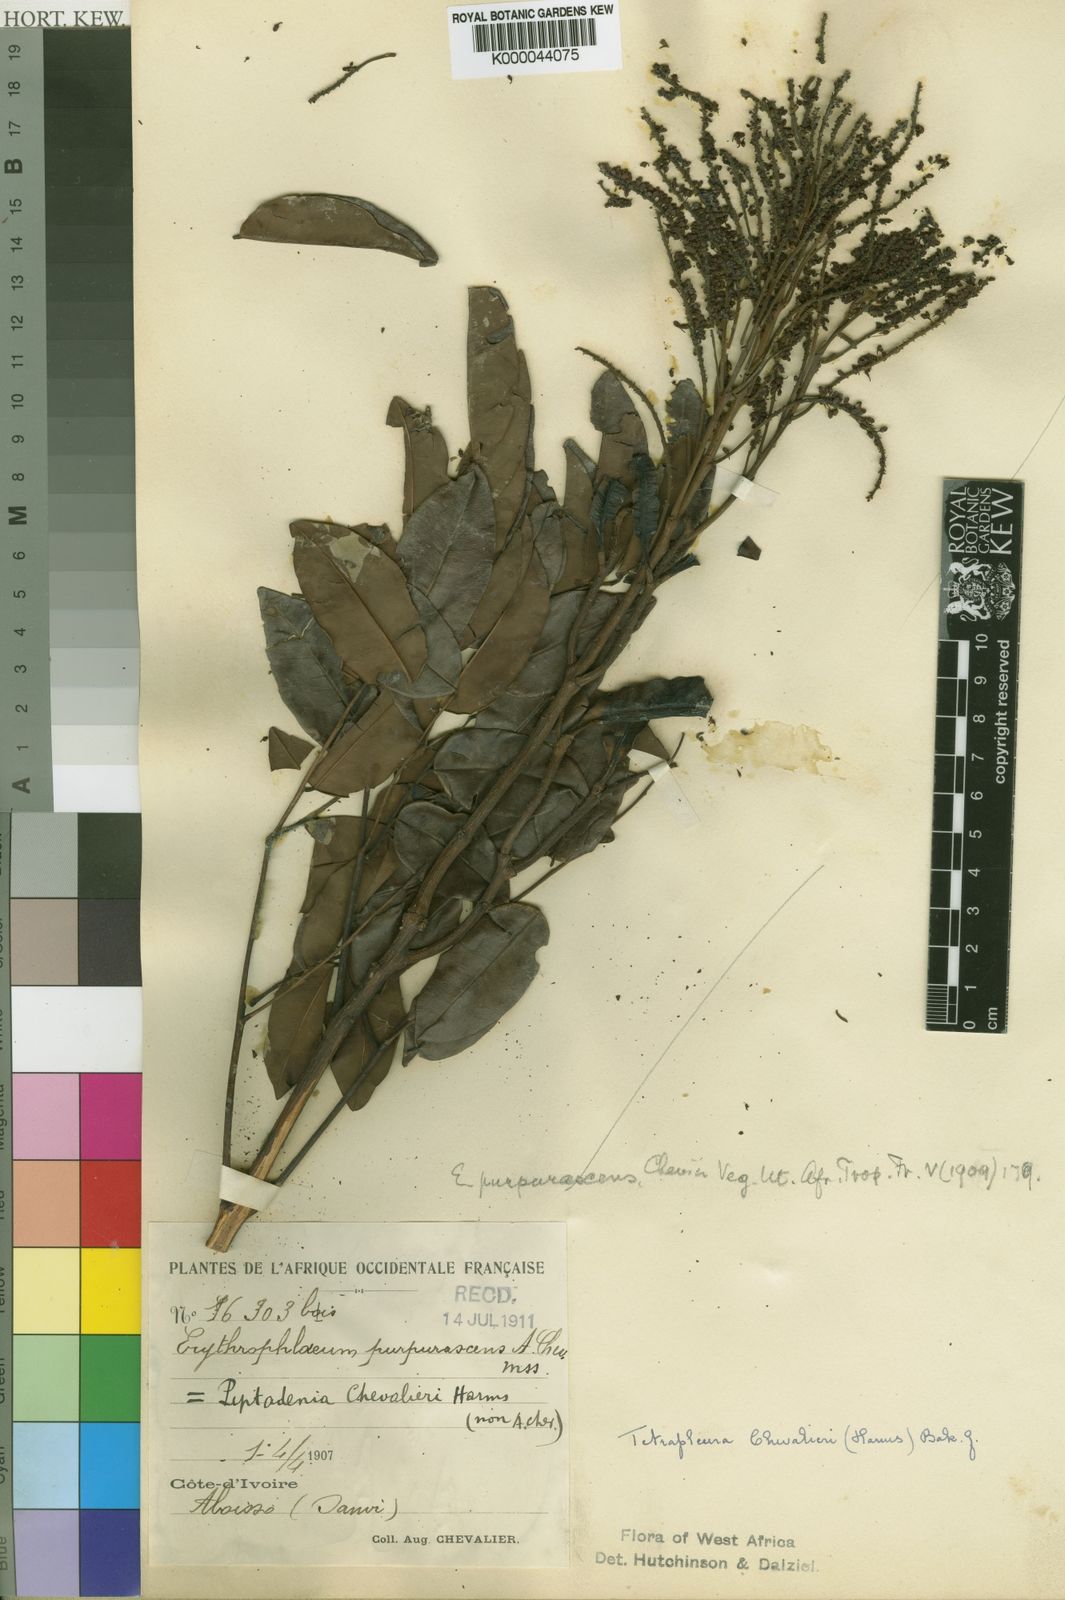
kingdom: Plantae
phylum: Tracheophyta
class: Magnoliopsida
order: Fabales
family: Fabaceae
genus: Tetrapleura
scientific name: Tetrapleura chevalieri
